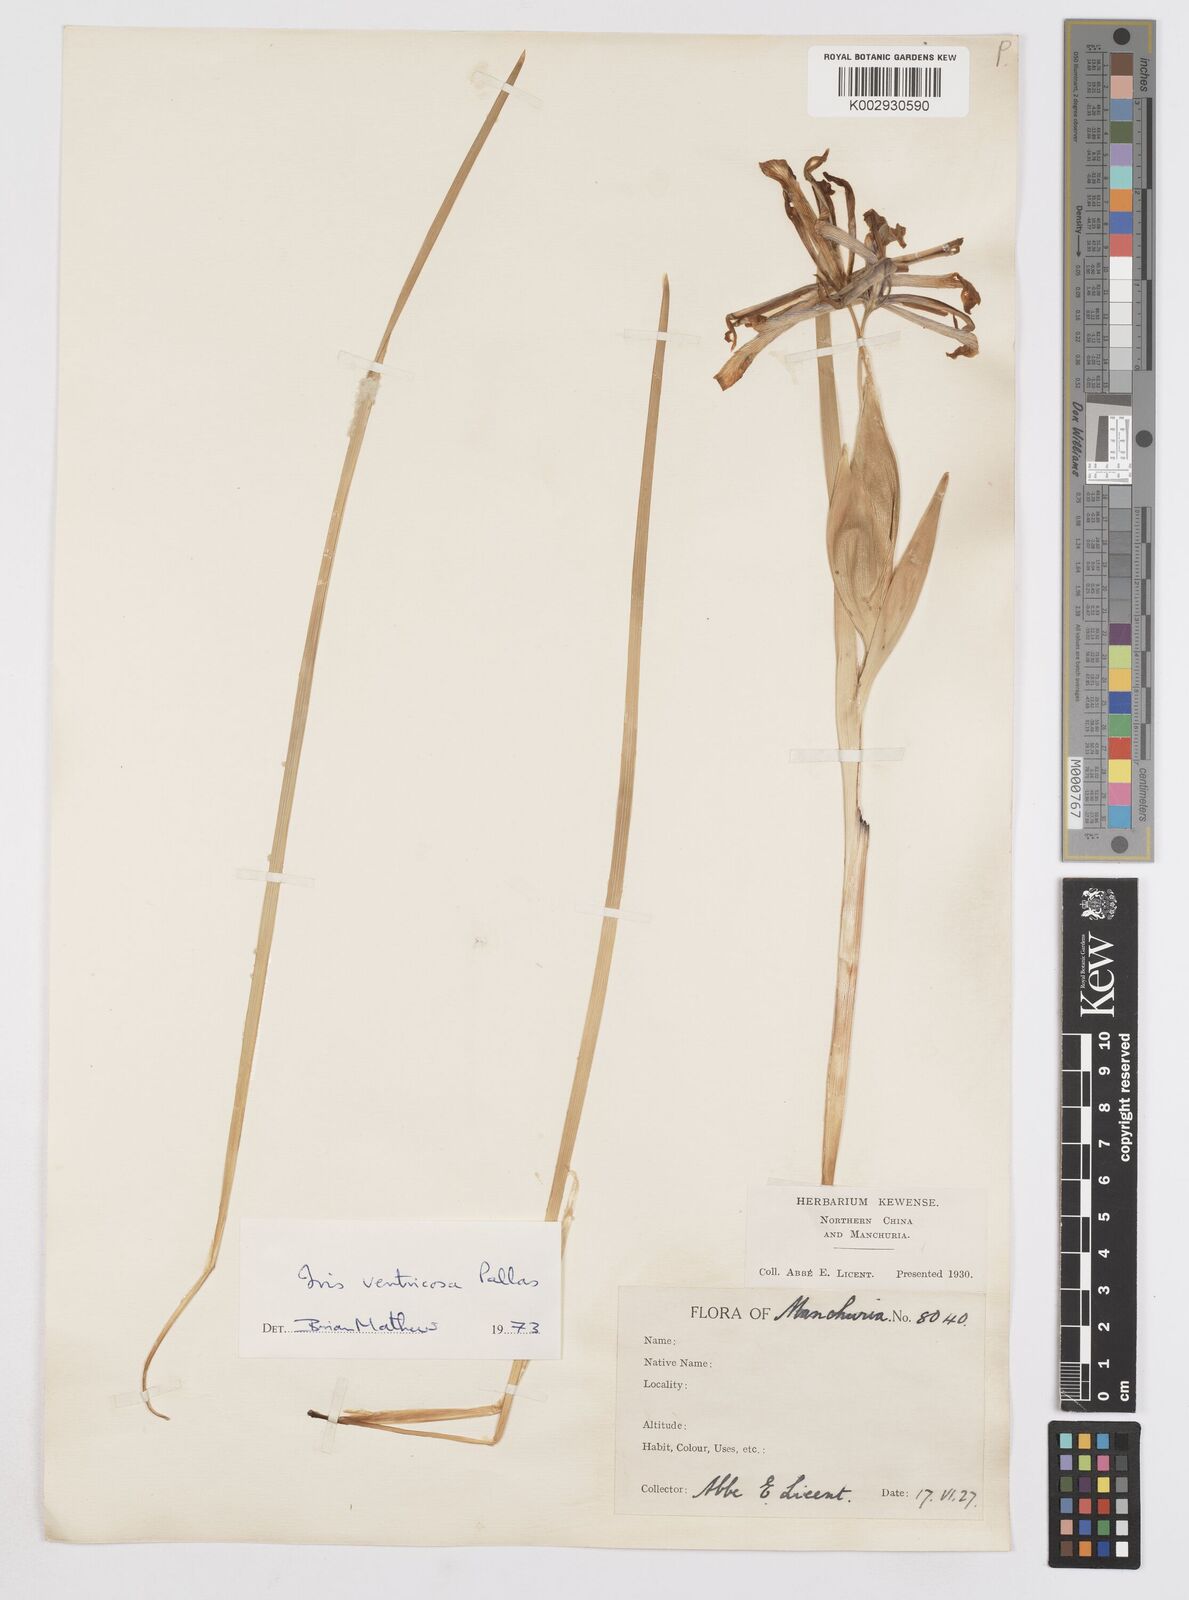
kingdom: Plantae
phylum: Tracheophyta
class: Liliopsida
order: Asparagales
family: Iridaceae
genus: Iris
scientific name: Iris ventricosa
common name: Purple-flower iris
